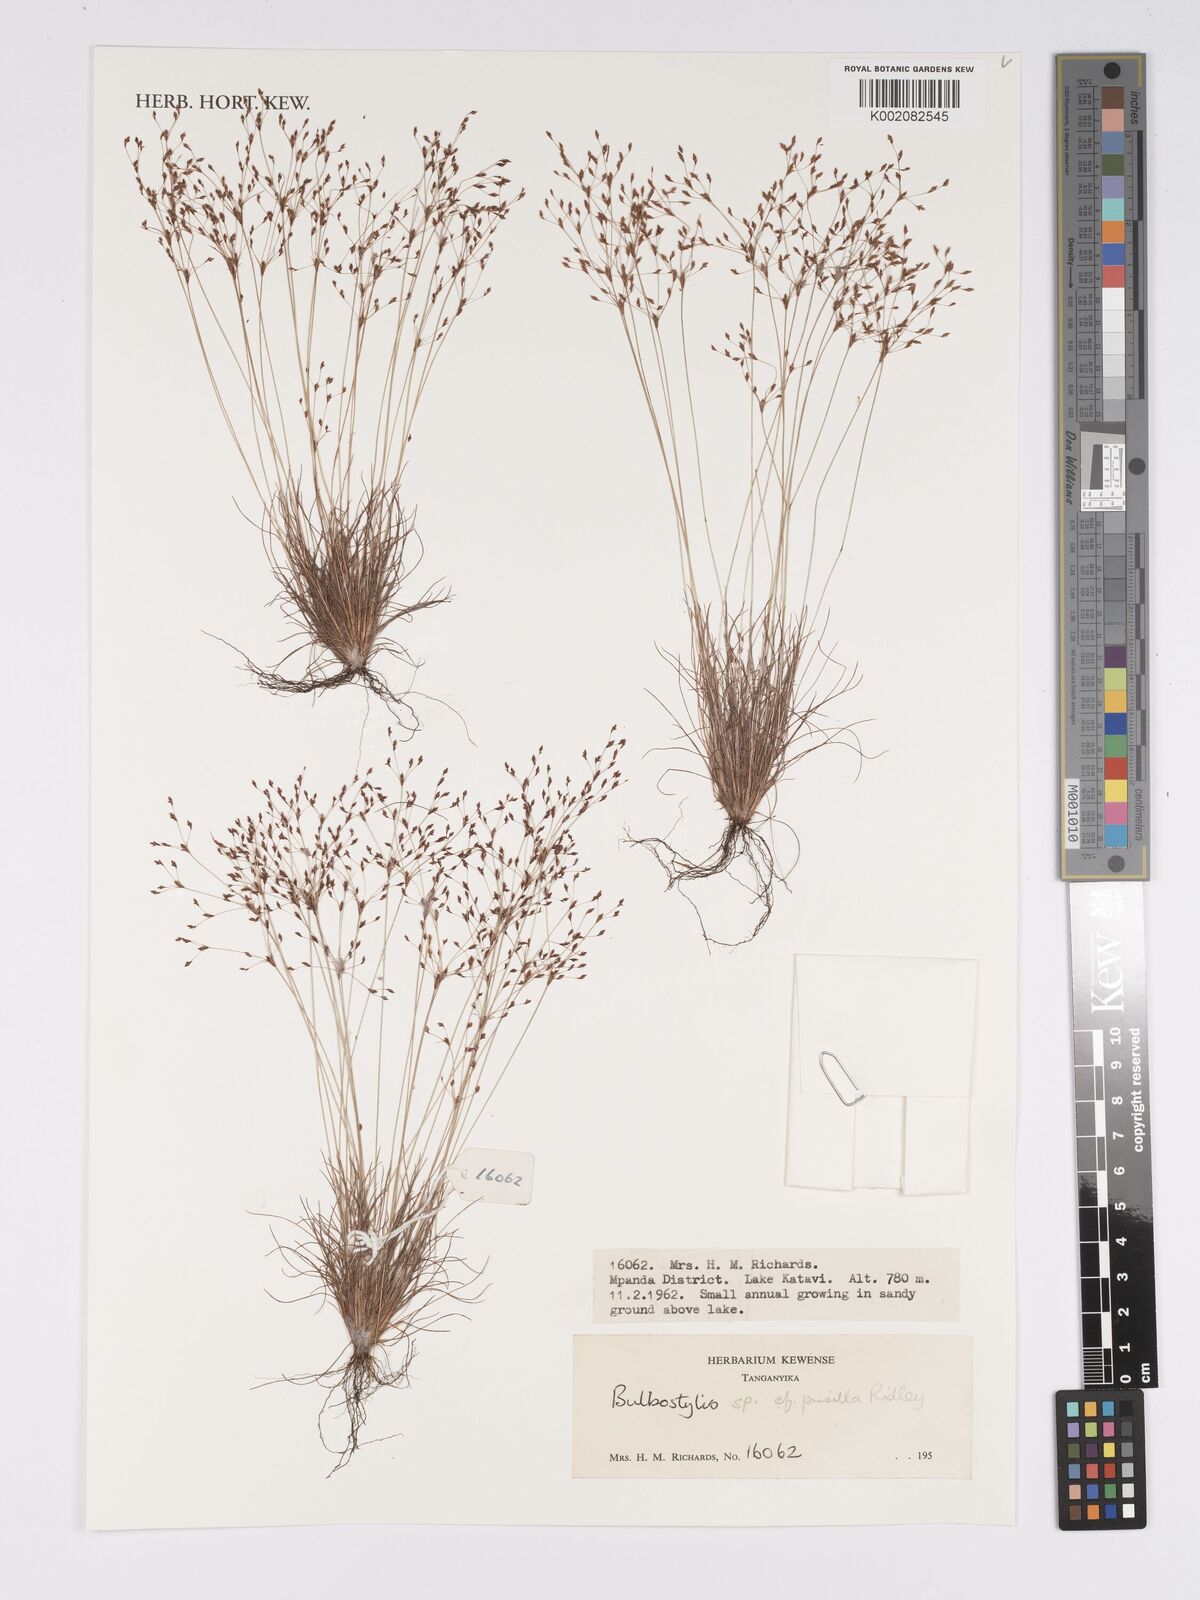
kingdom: Plantae
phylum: Tracheophyta
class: Liliopsida
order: Poales
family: Cyperaceae
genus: Bulbostylis
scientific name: Bulbostylis pusilla
